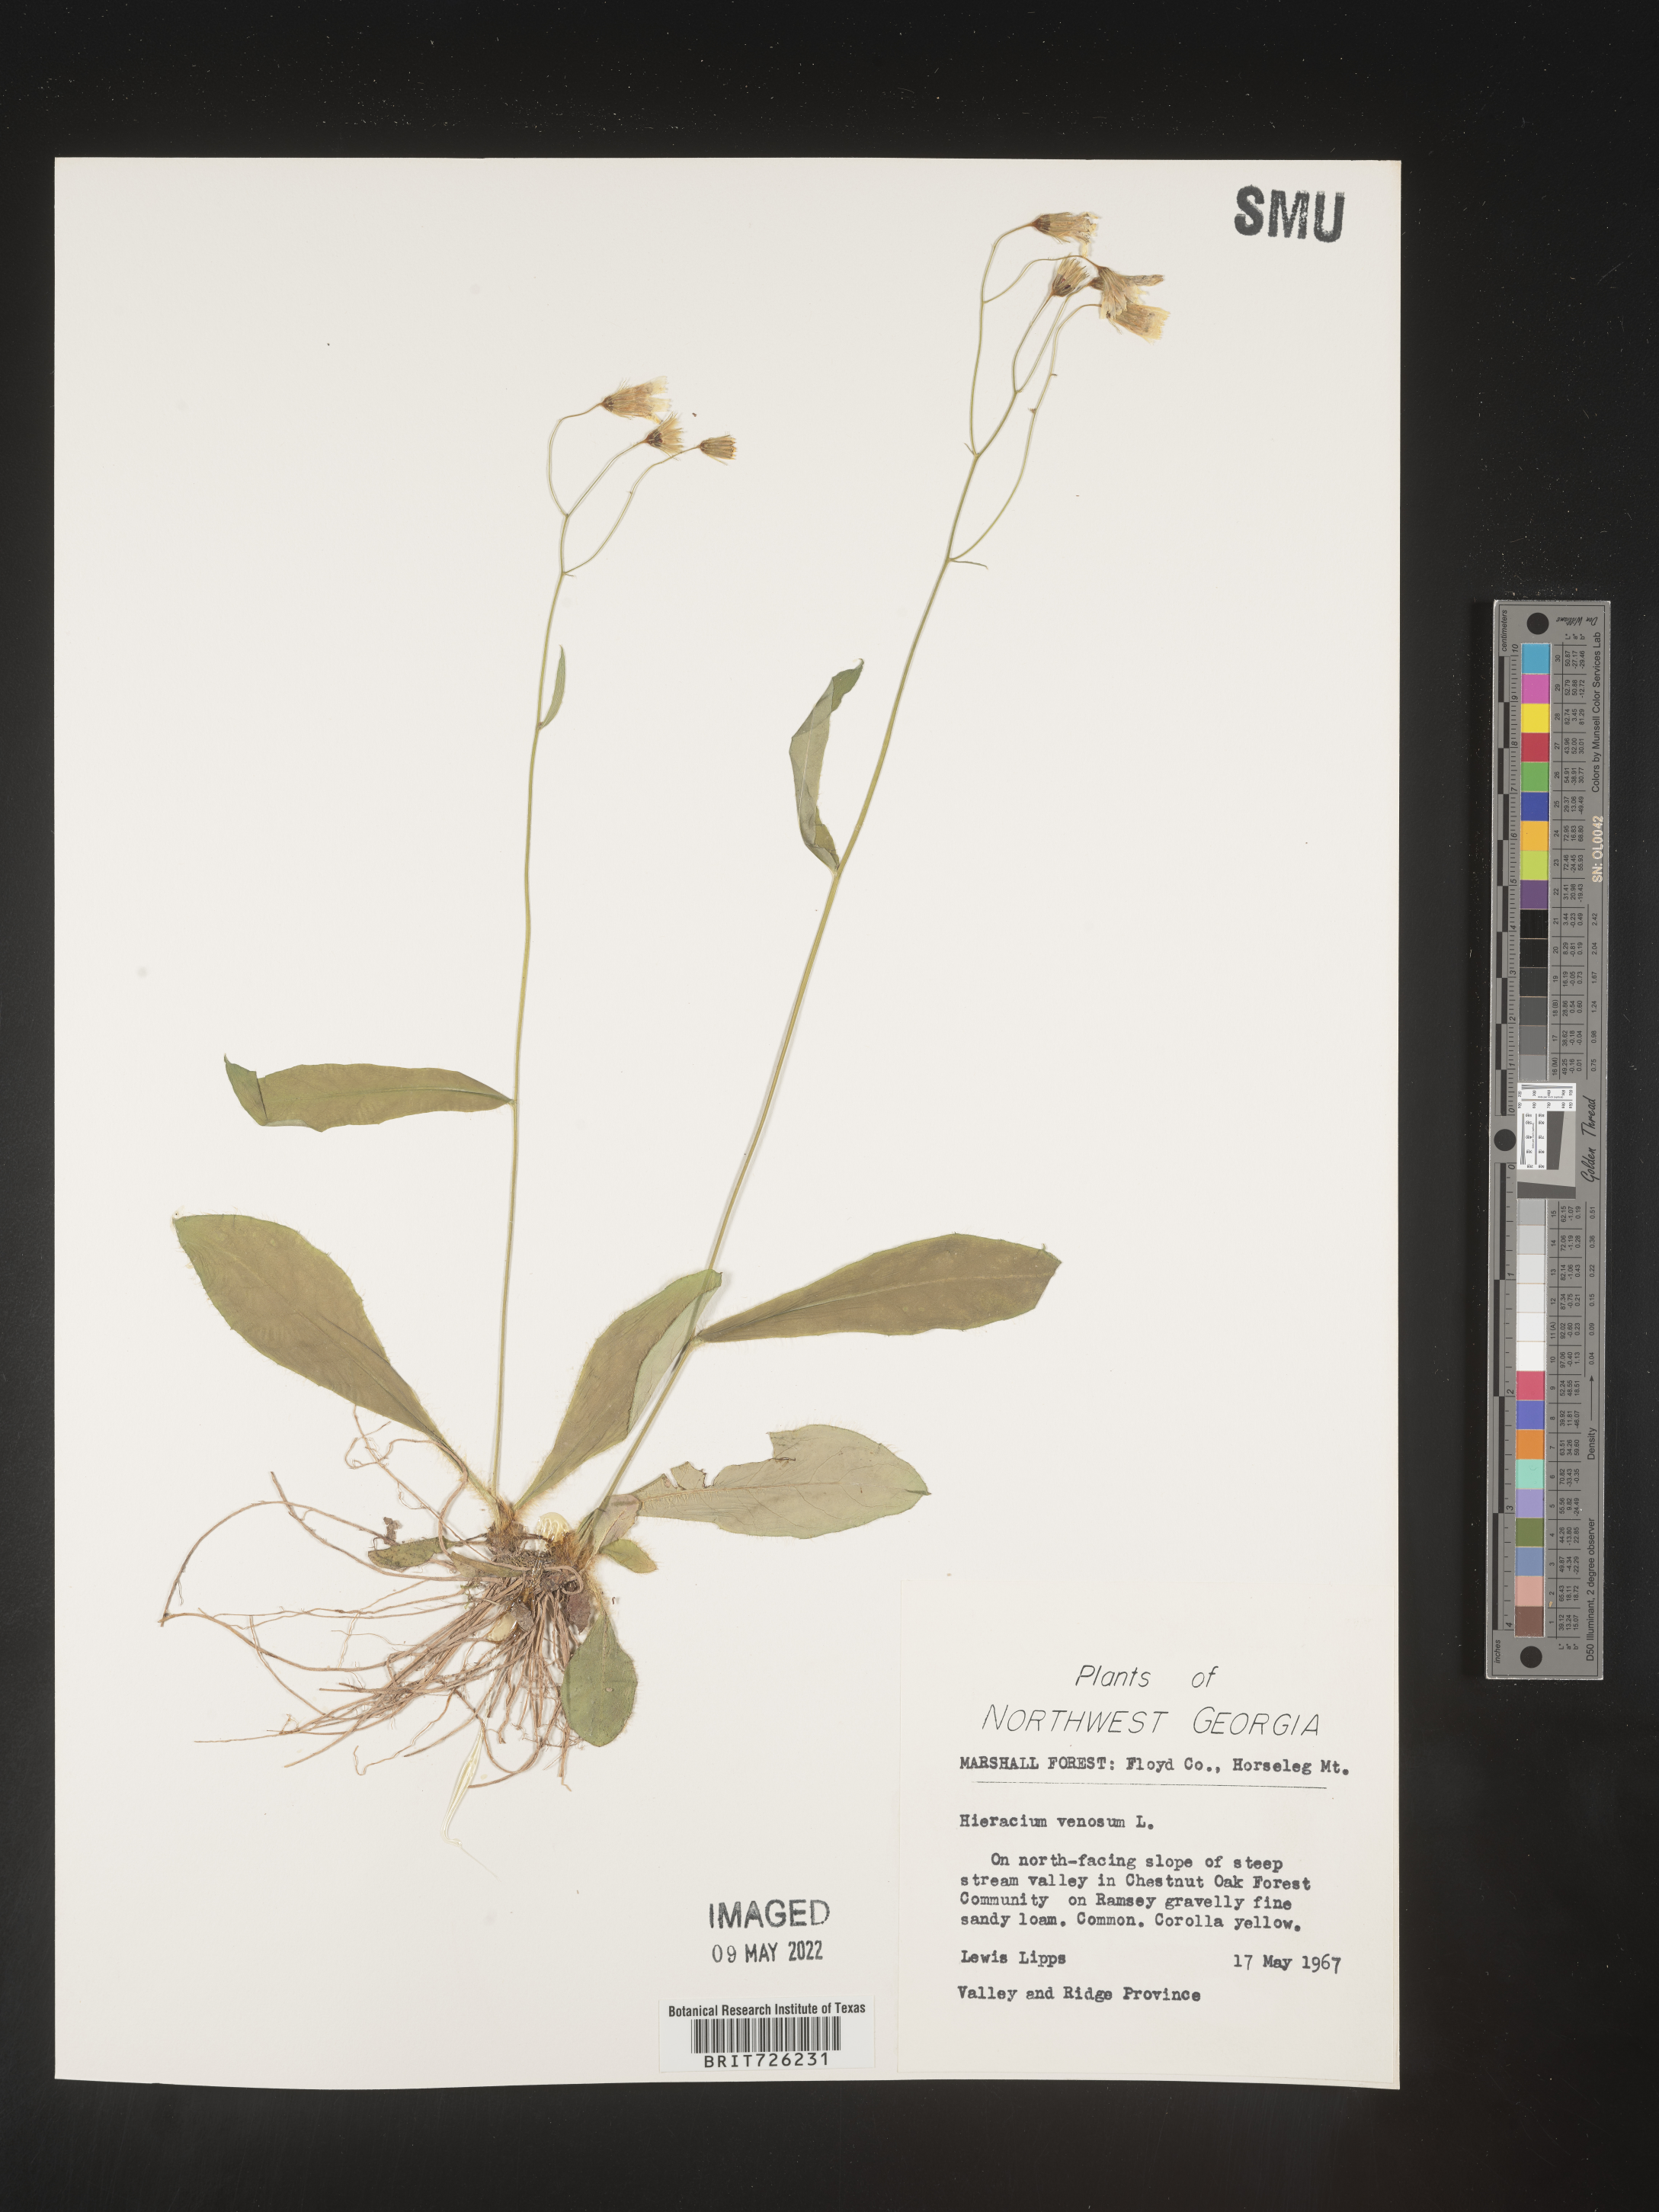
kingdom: Plantae
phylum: Tracheophyta
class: Magnoliopsida
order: Asterales
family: Asteraceae
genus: Hieracium
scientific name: Hieracium
